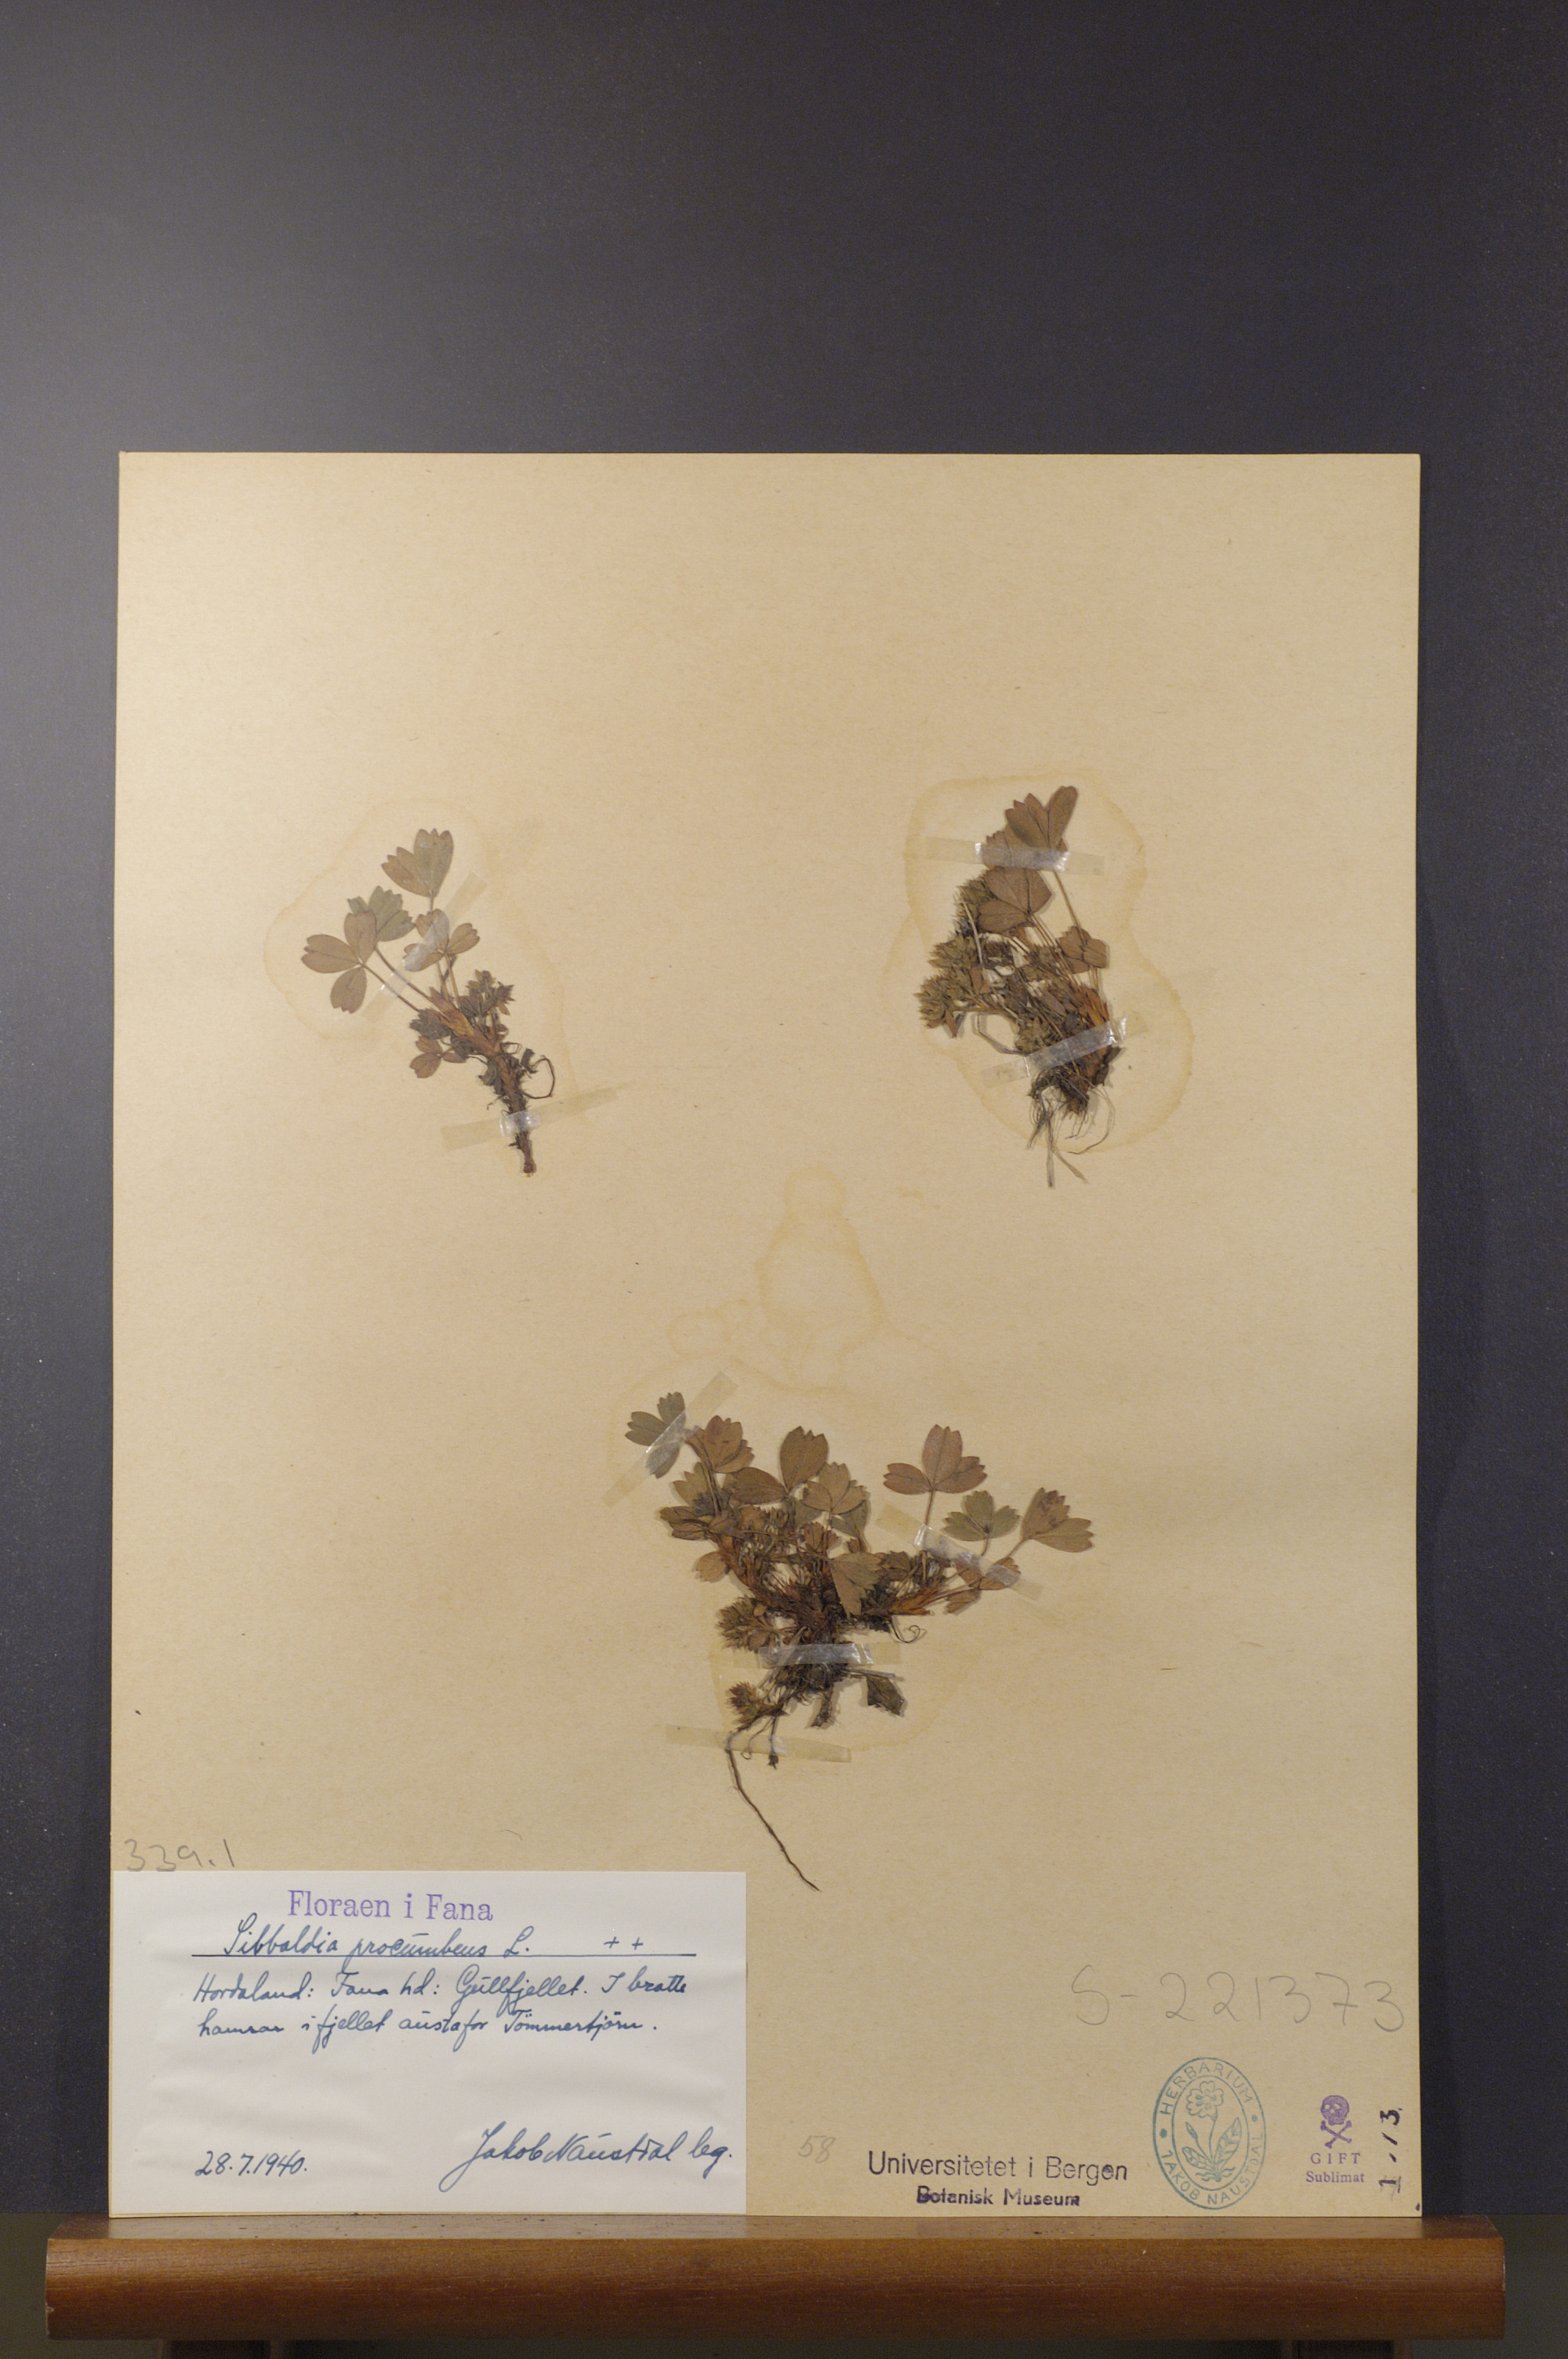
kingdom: Plantae
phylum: Tracheophyta
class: Magnoliopsida
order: Rosales
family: Rosaceae
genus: Sibbaldia
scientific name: Sibbaldia procumbens
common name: Creeping sibbaldia
